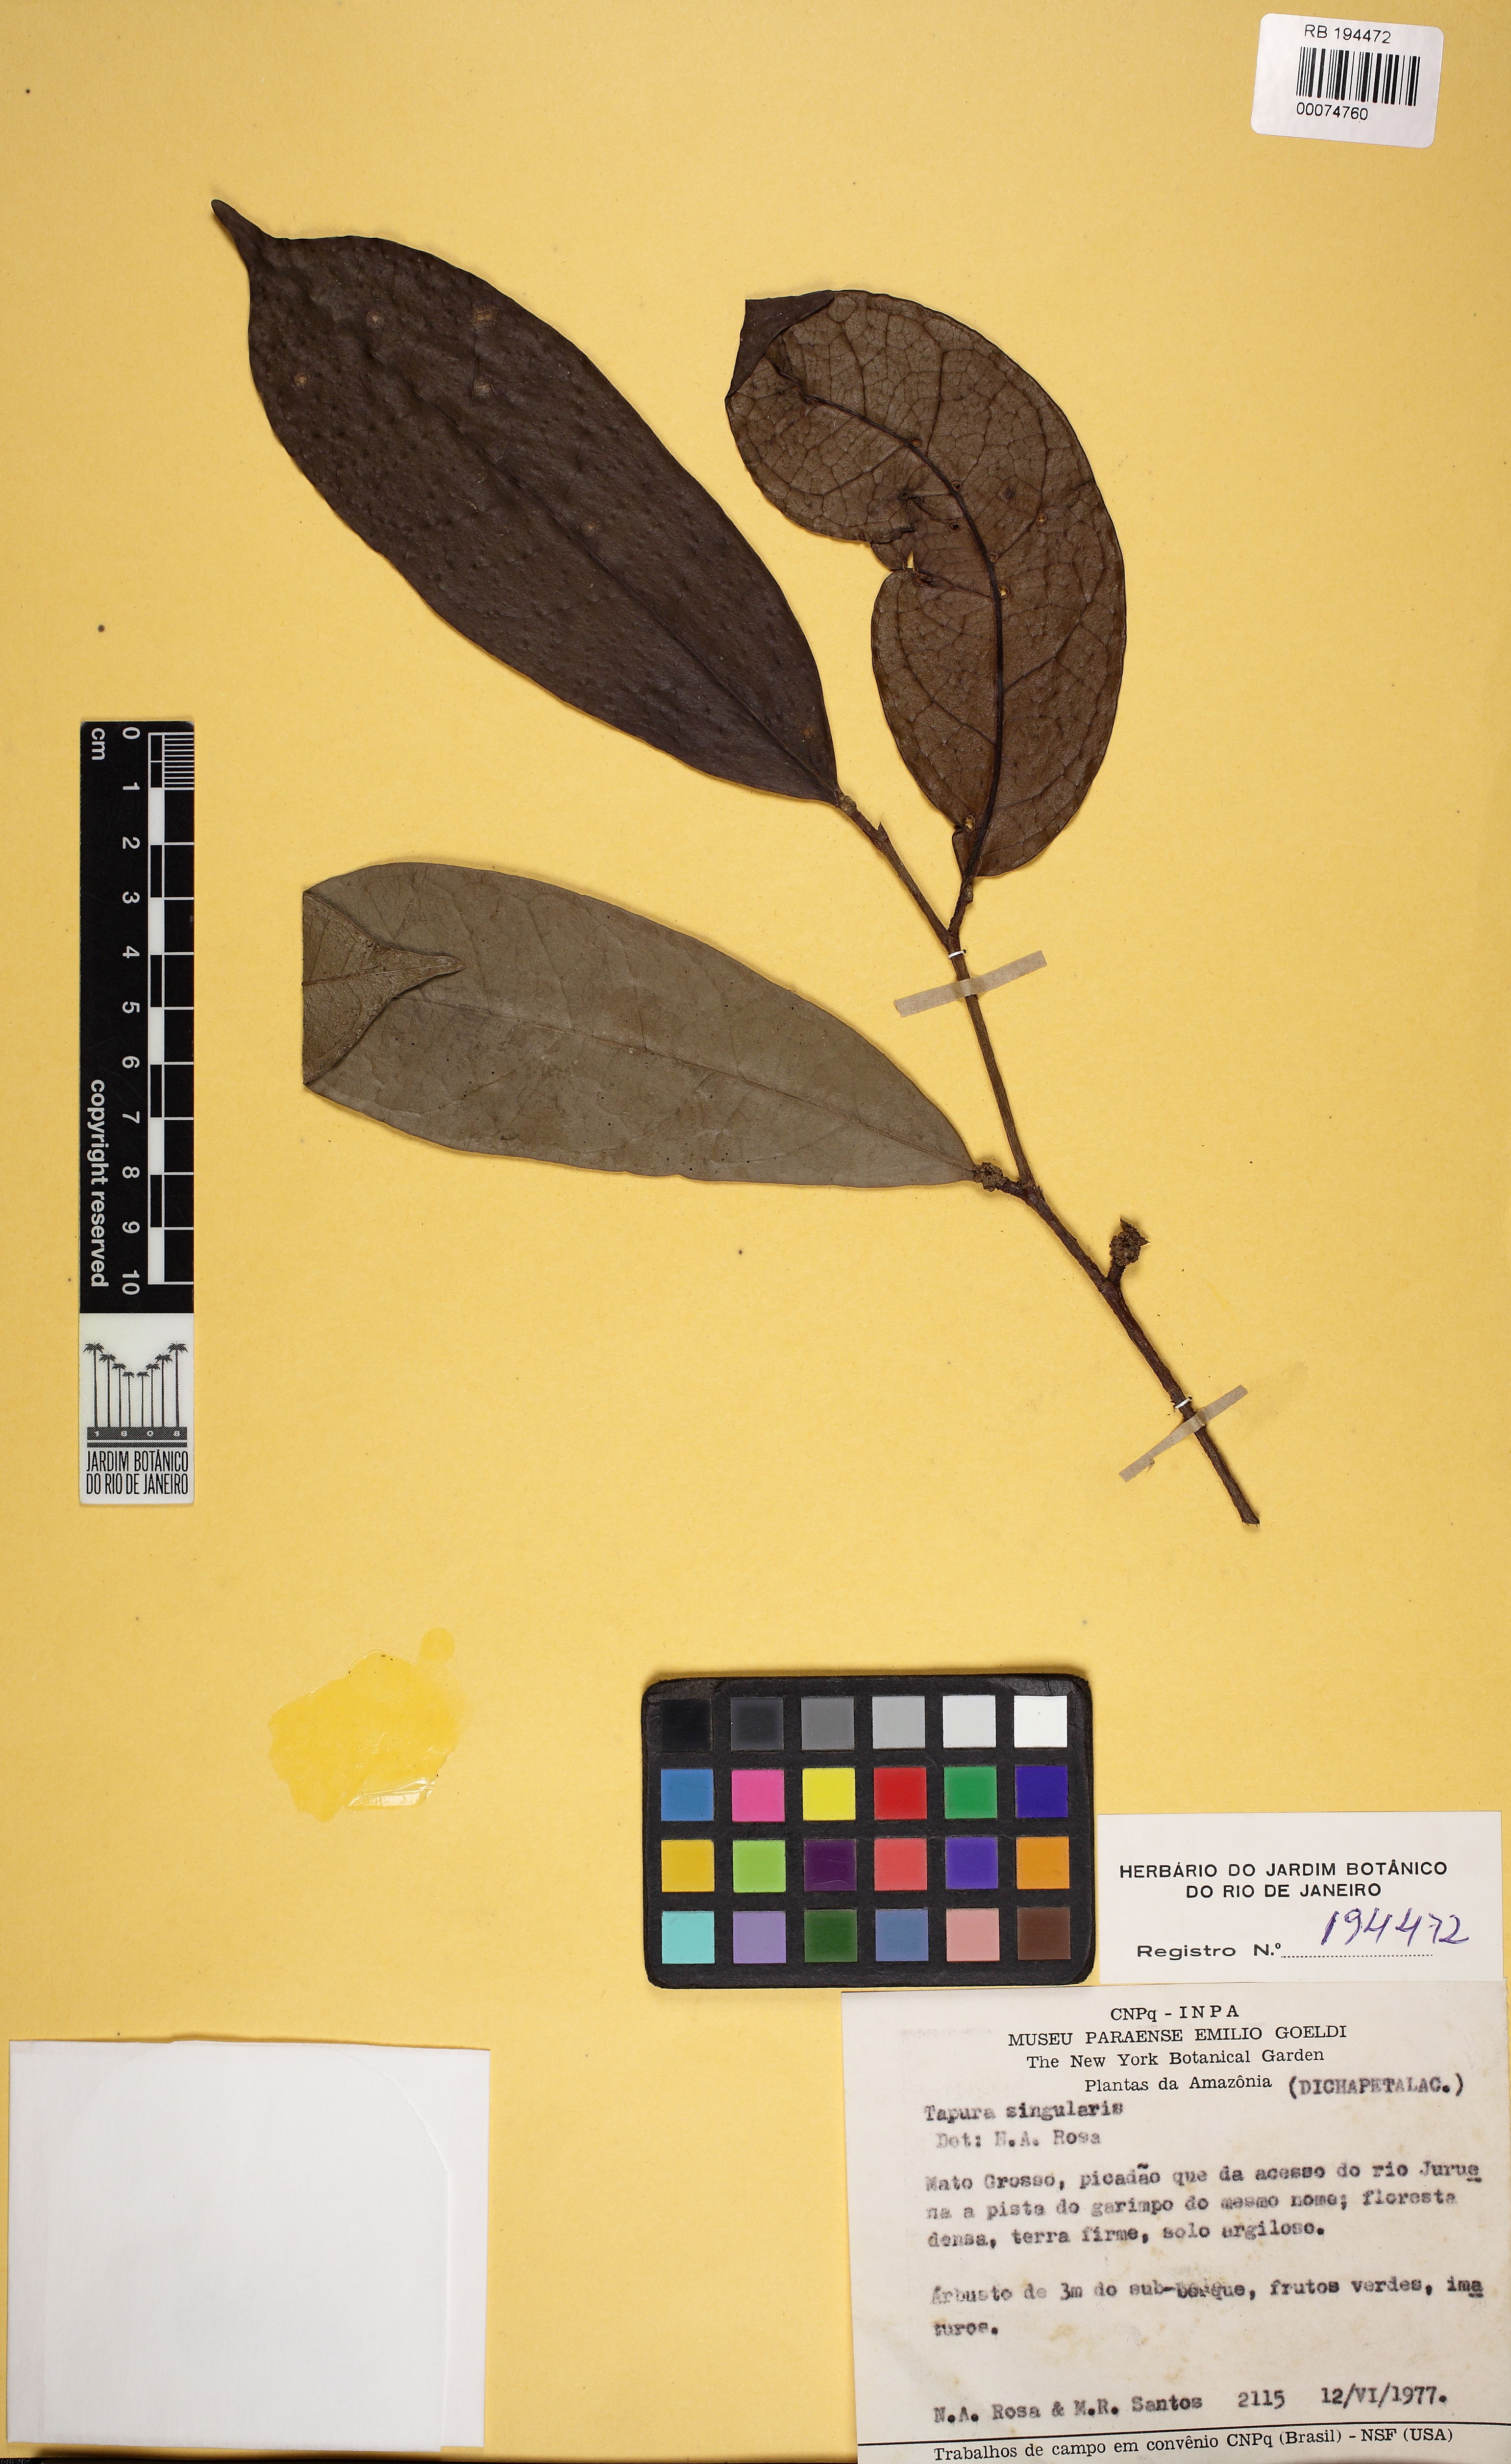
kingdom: Plantae
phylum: Tracheophyta
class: Magnoliopsida
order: Malpighiales
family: Dichapetalaceae
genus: Tapura
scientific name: Tapura singularis
